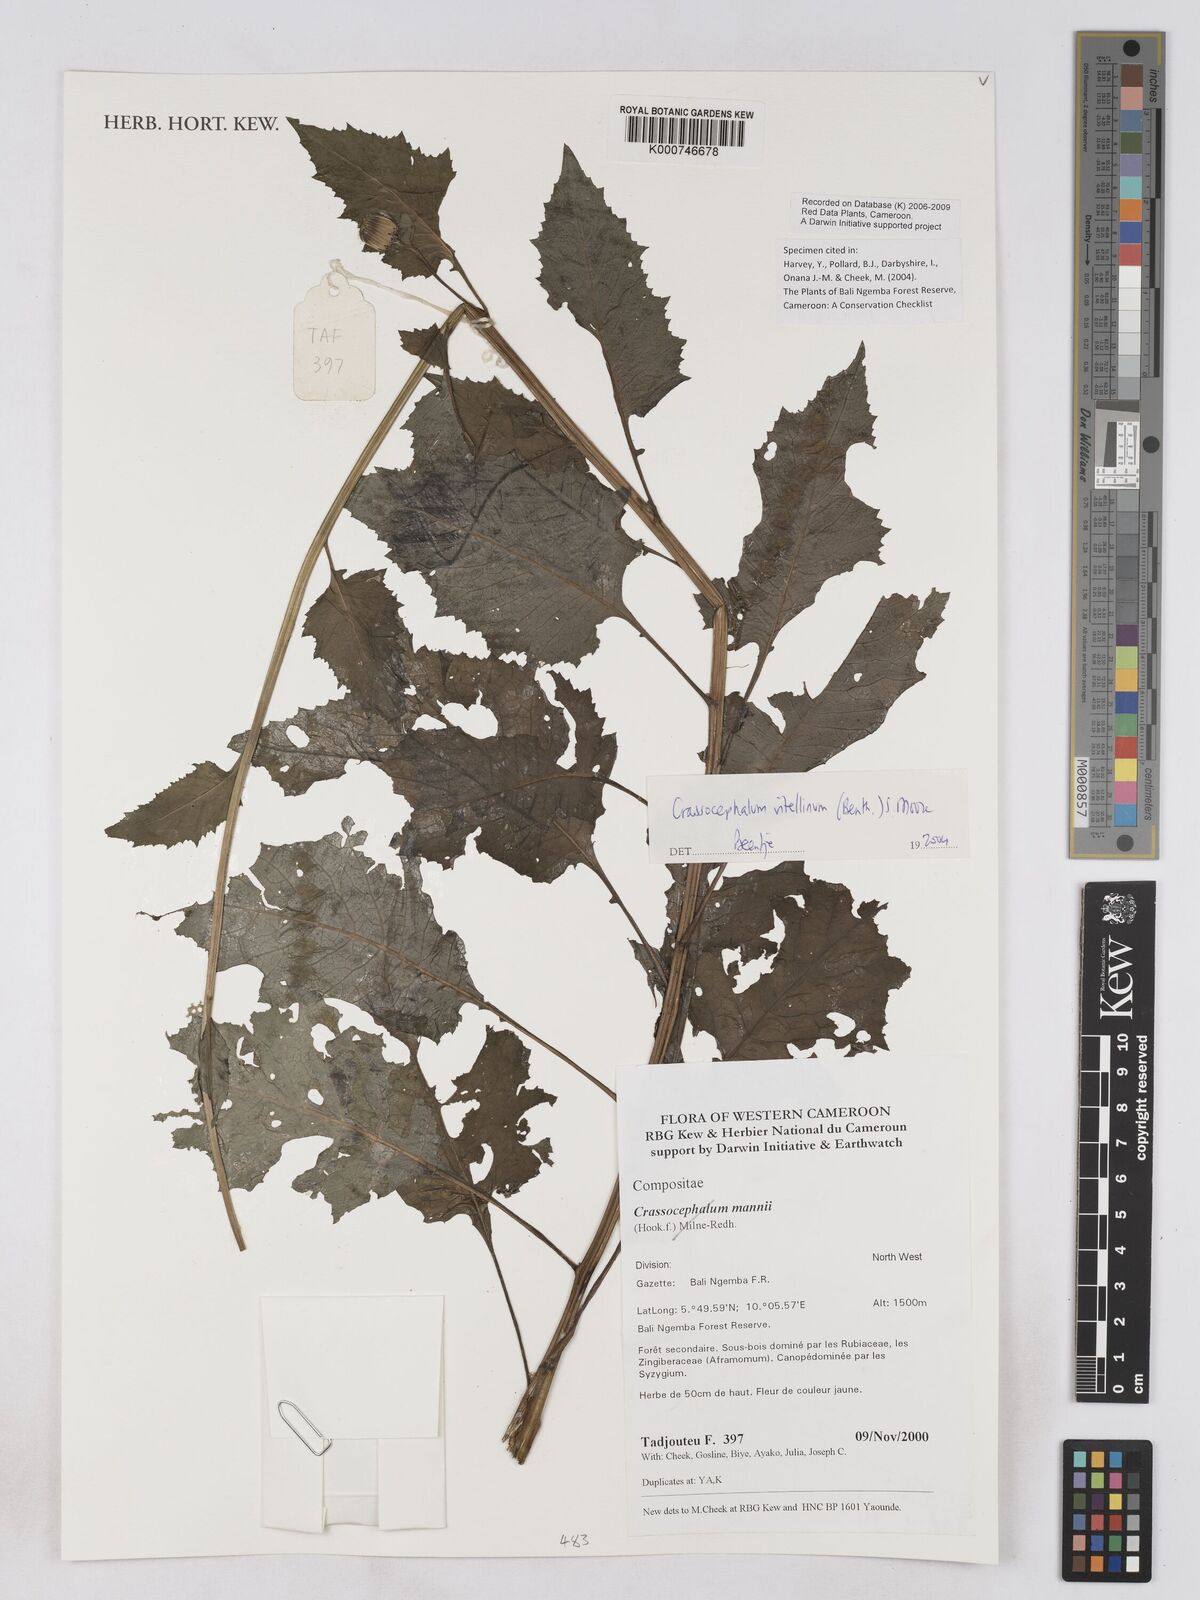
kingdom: Plantae
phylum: Tracheophyta
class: Magnoliopsida
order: Asterales
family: Asteraceae
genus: Crassocephalum
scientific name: Crassocephalum vitellinum
